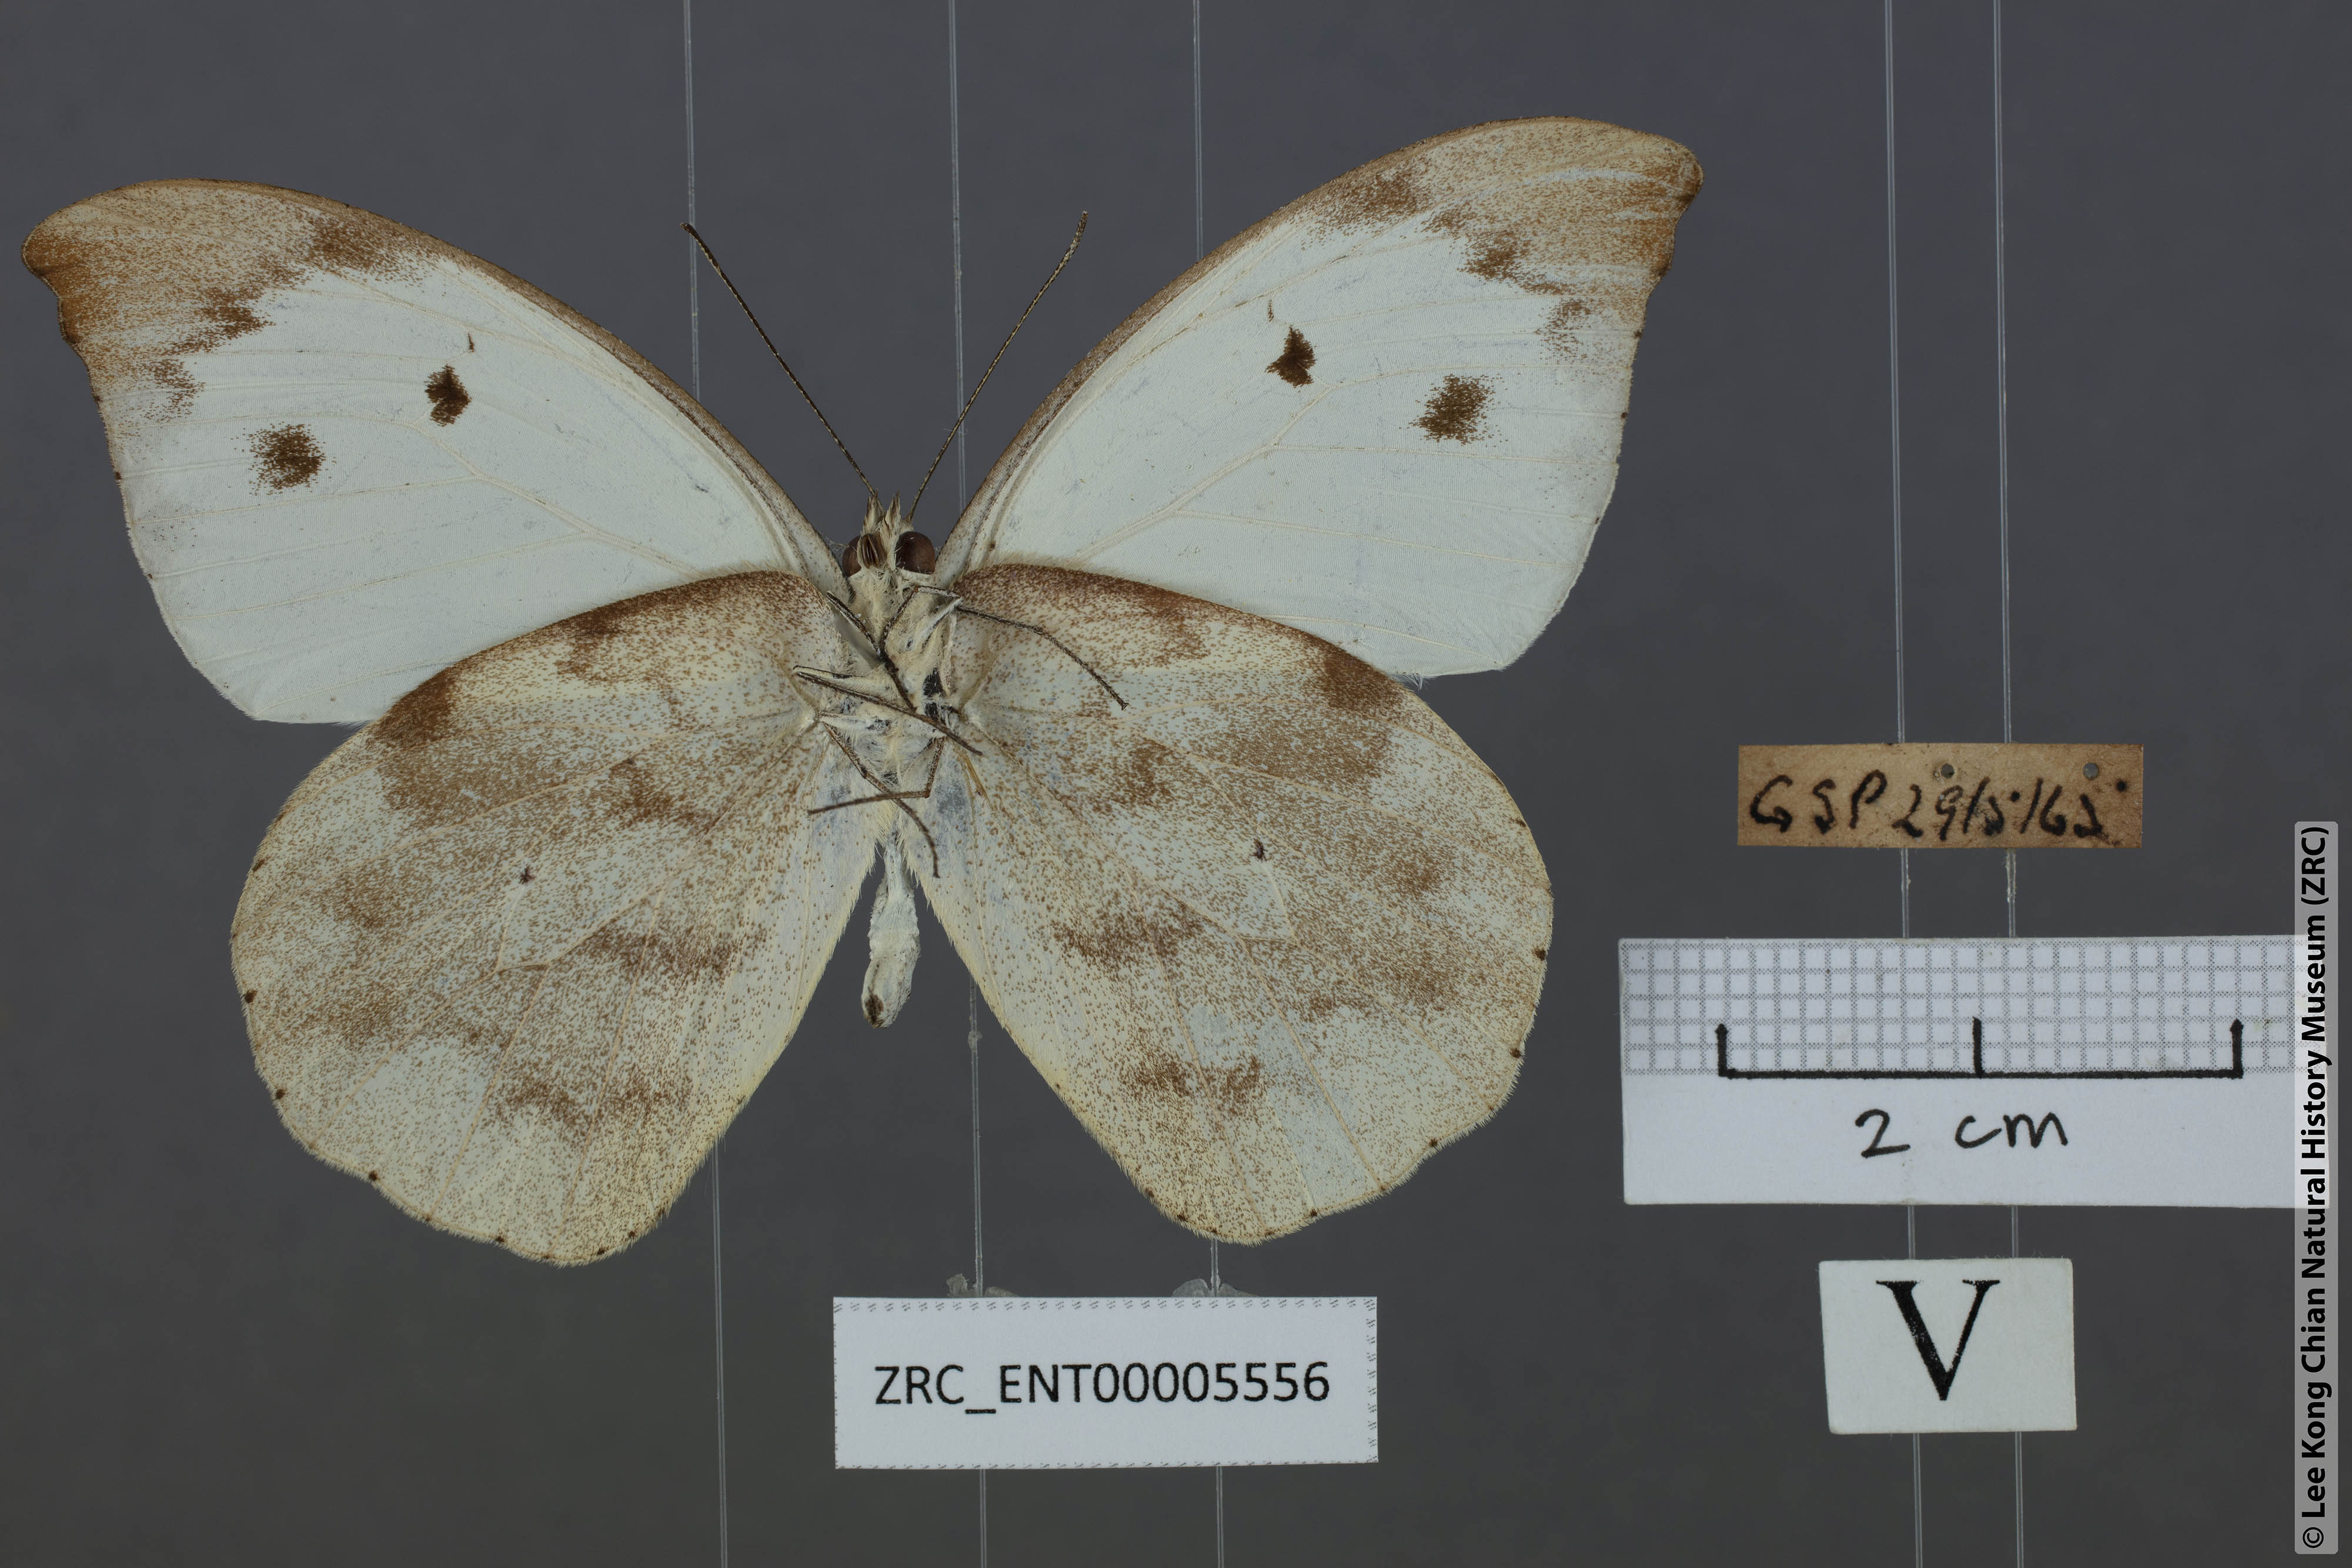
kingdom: Animalia
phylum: Arthropoda
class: Insecta
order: Lepidoptera
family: Pieridae
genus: Appias
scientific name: Appias lalassis
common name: Burmese puffin
